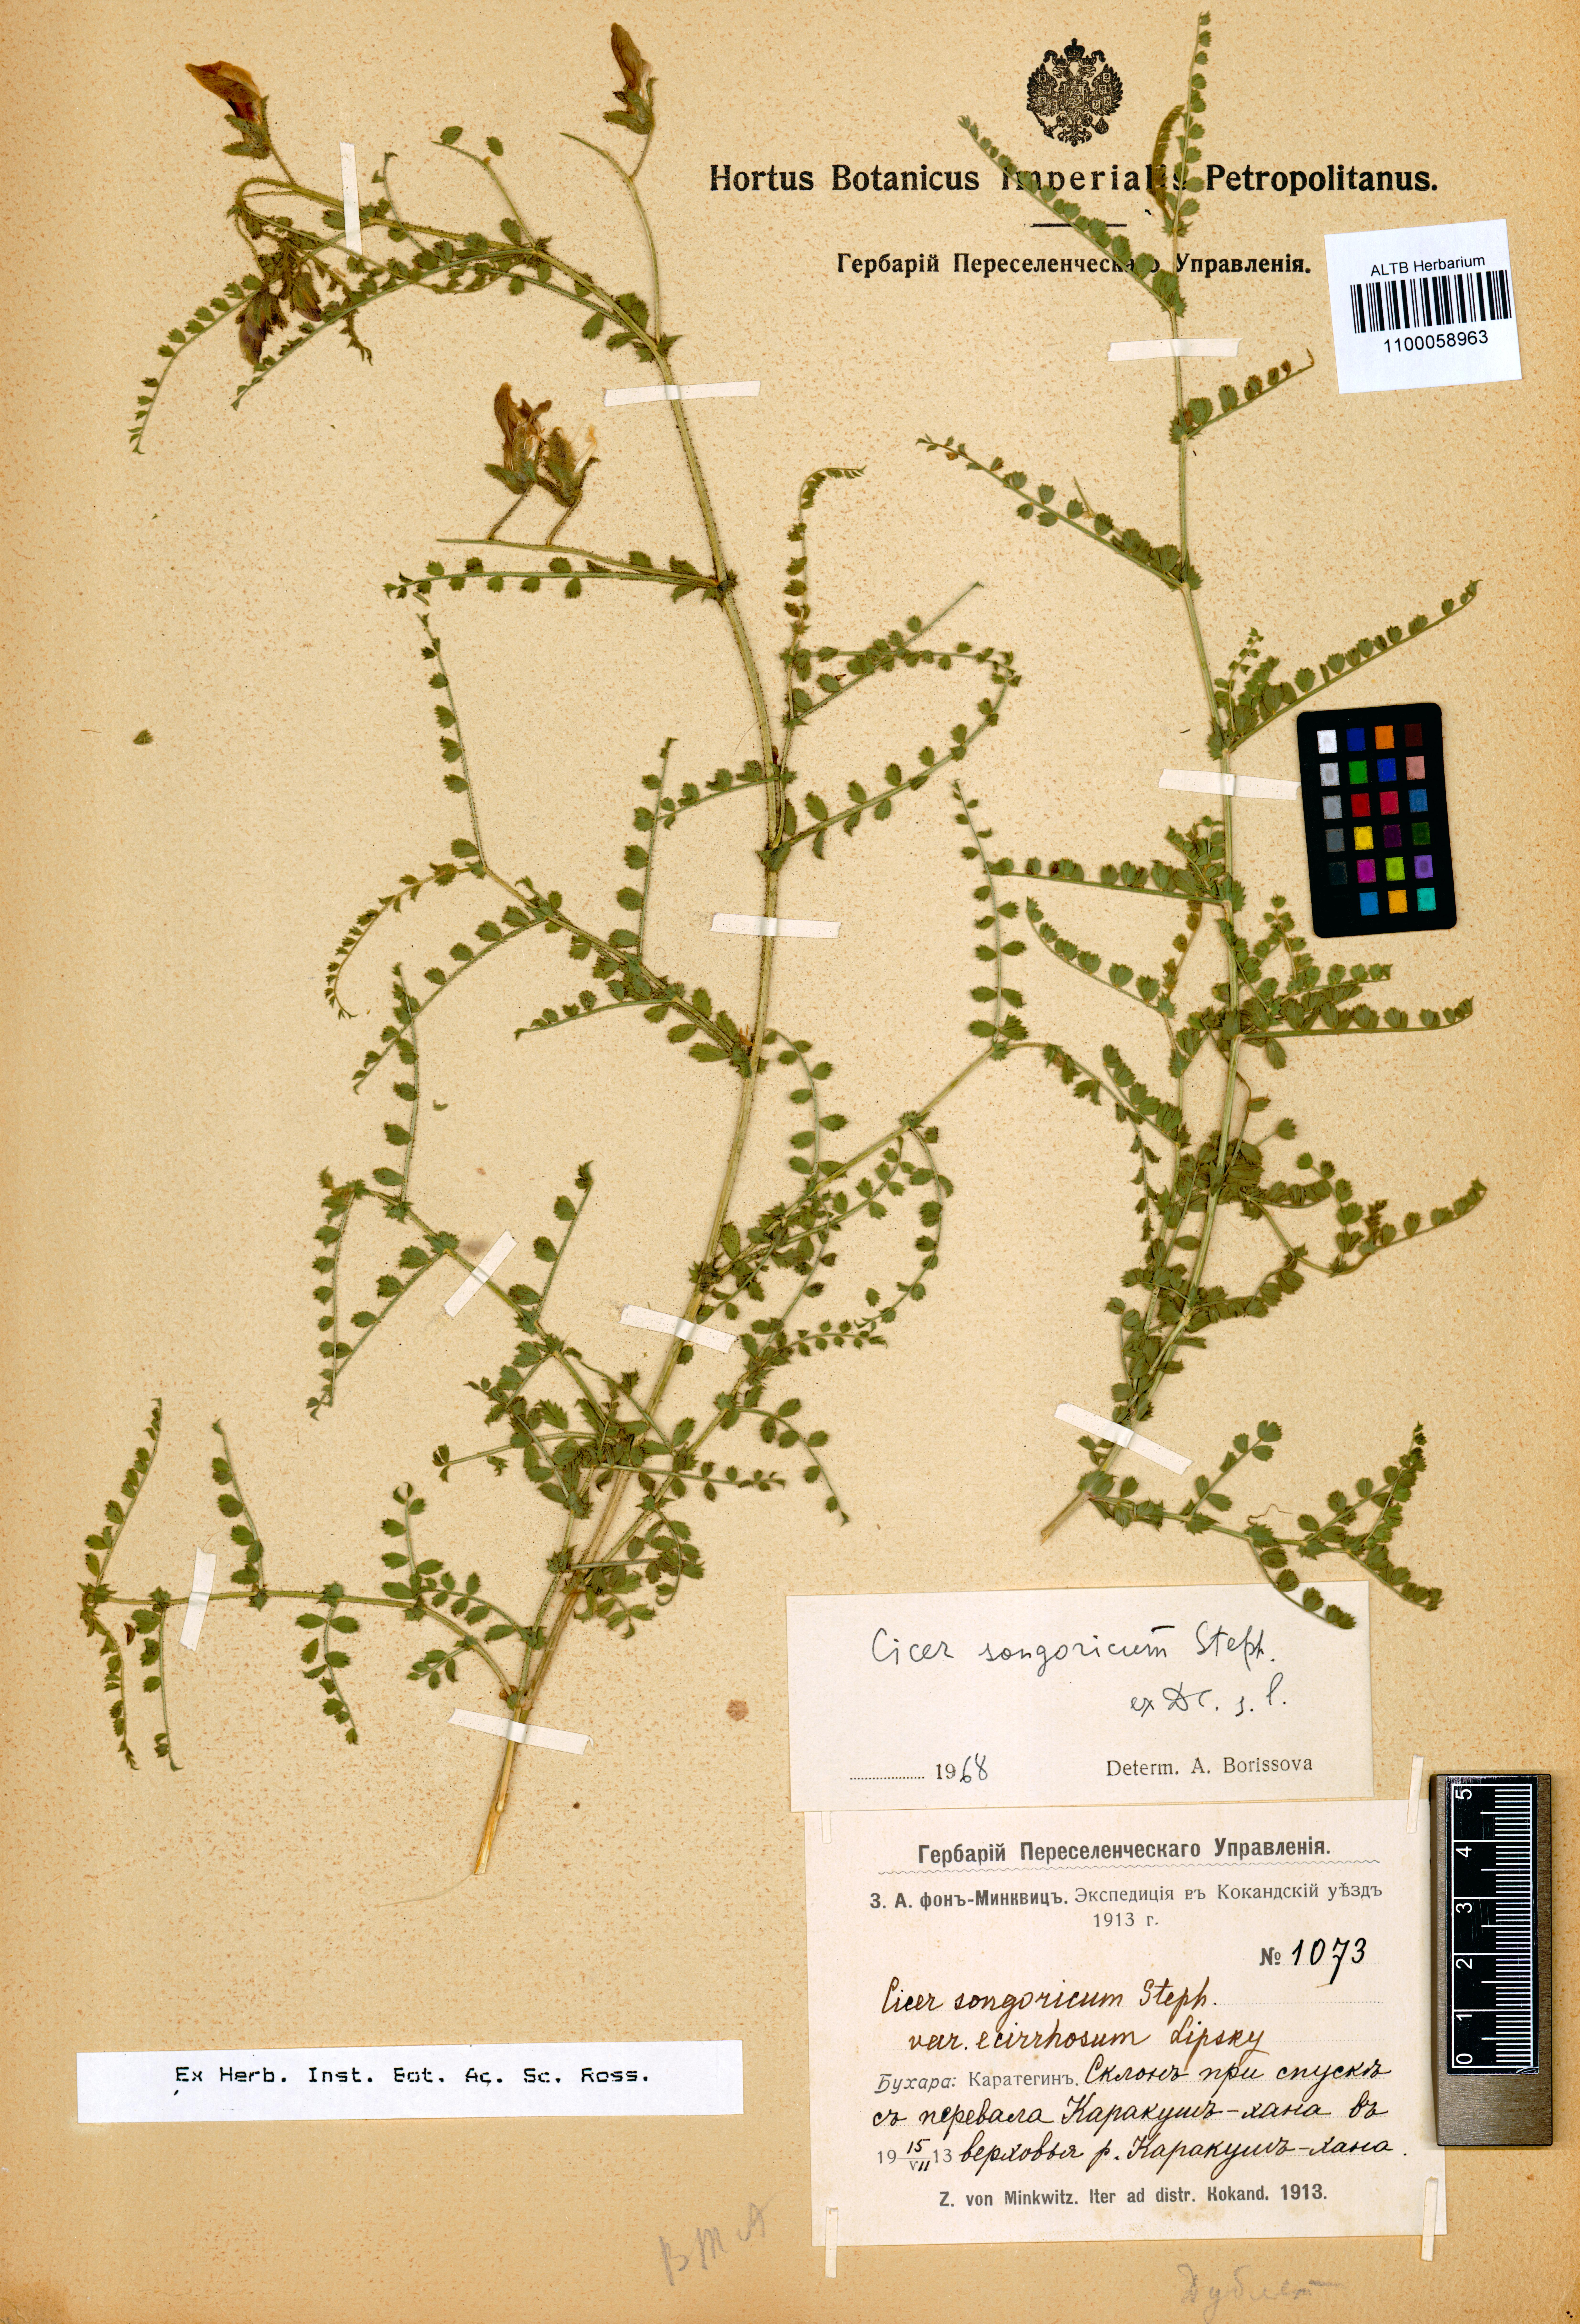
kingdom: Plantae
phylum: Tracheophyta
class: Magnoliopsida
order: Fabales
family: Fabaceae
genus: Cicer
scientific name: Cicer songaricum
